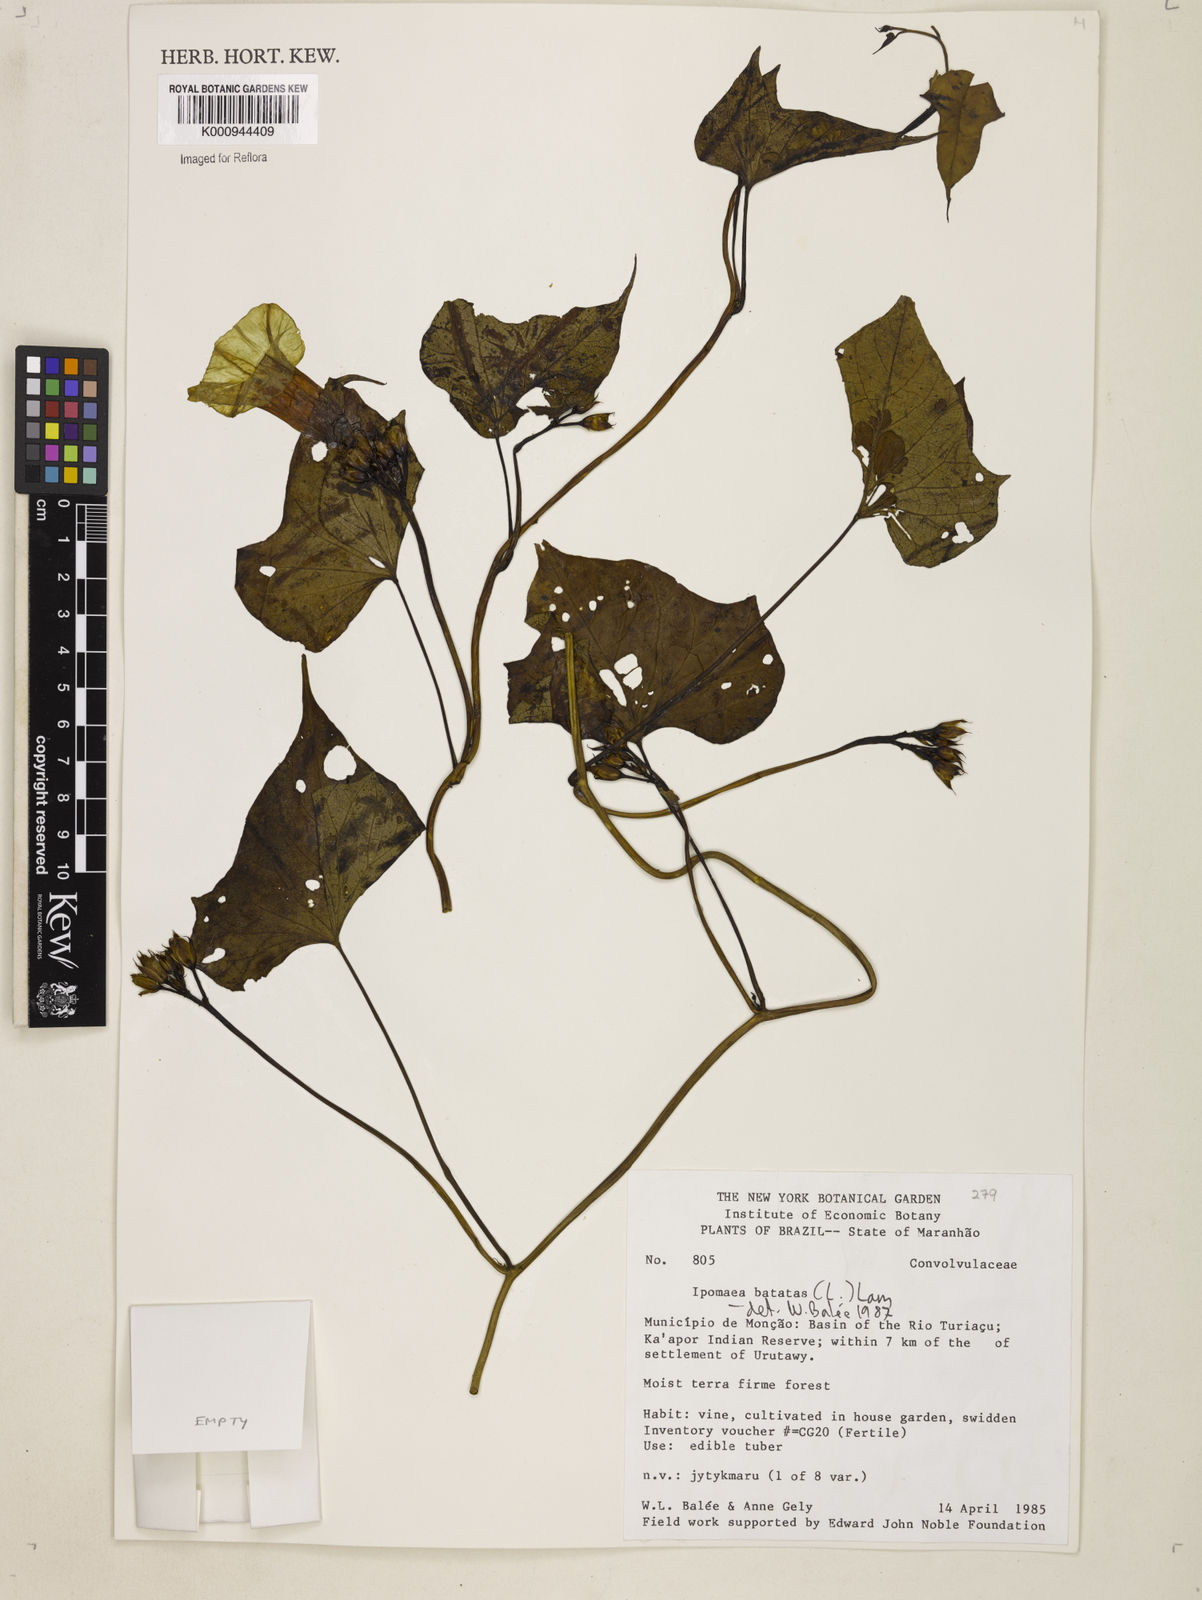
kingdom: Plantae
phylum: Tracheophyta
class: Magnoliopsida
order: Solanales
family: Convolvulaceae
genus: Ipomoea
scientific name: Ipomoea batatas
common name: Sweet-potato
